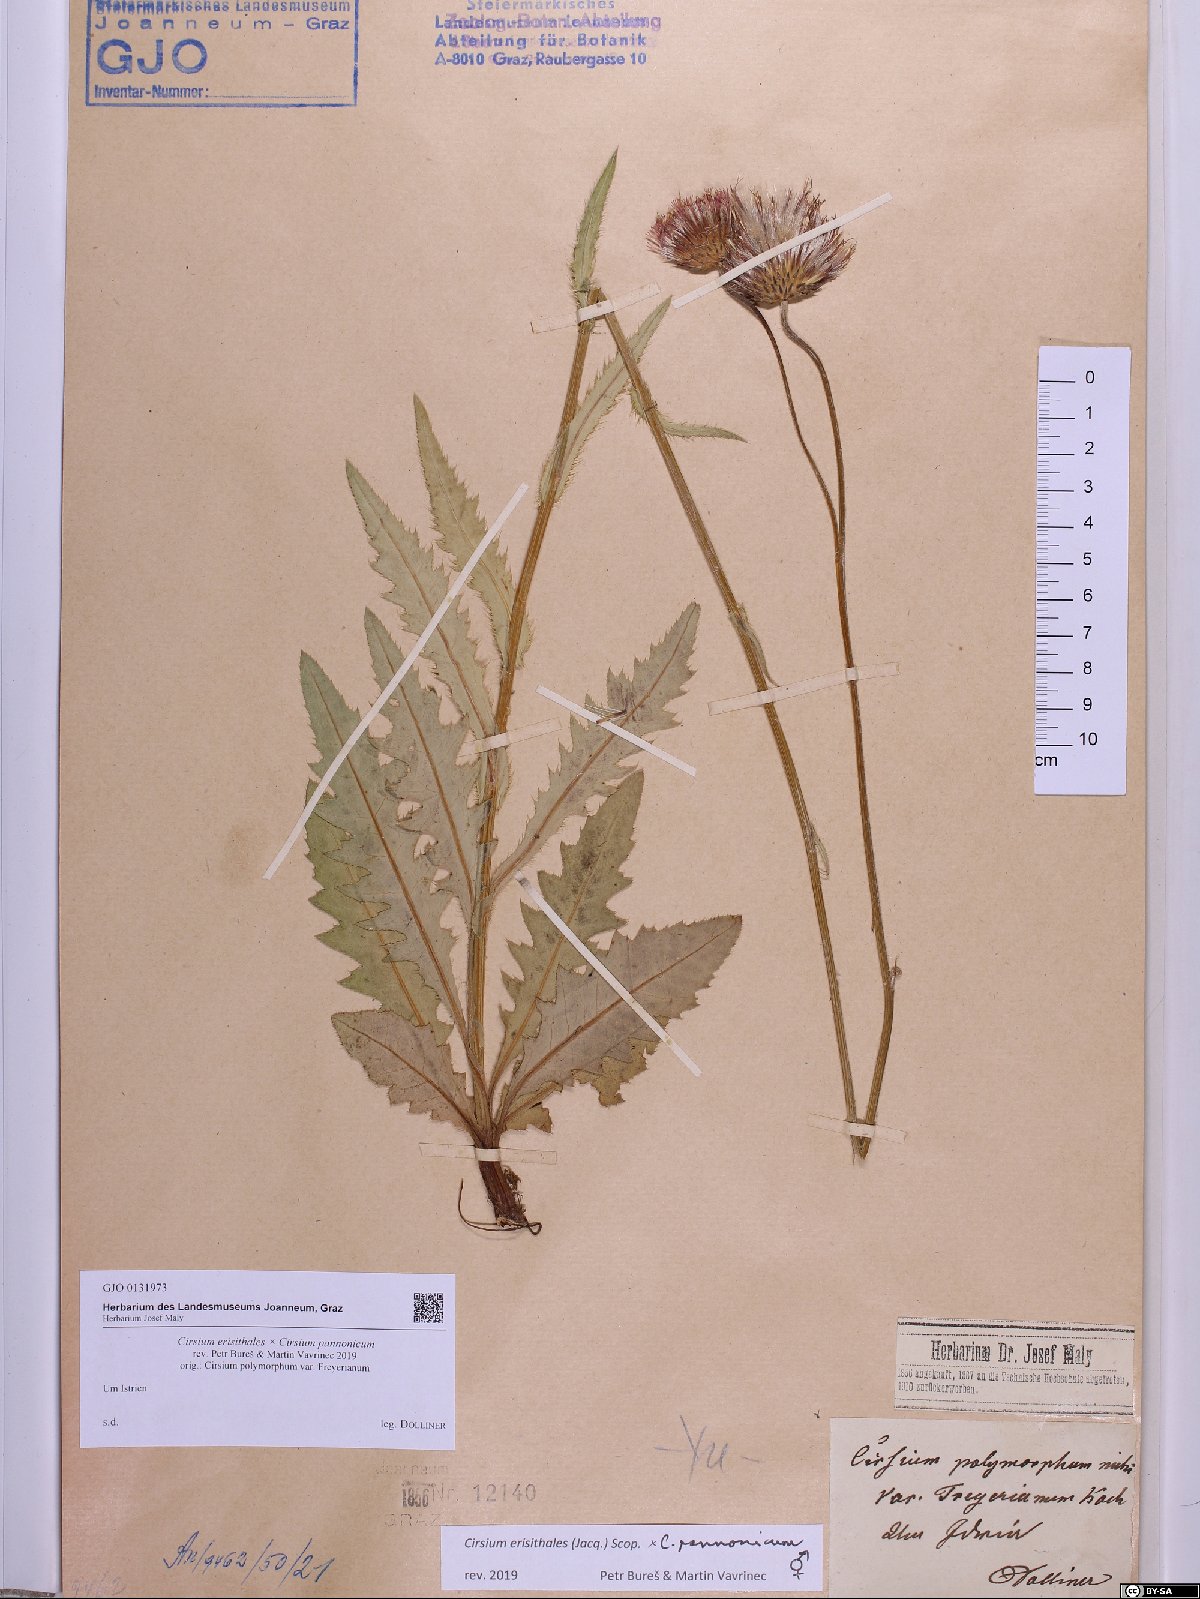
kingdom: Plantae
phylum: Tracheophyta
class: Magnoliopsida
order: Asterales
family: Asteraceae
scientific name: Asteraceae
